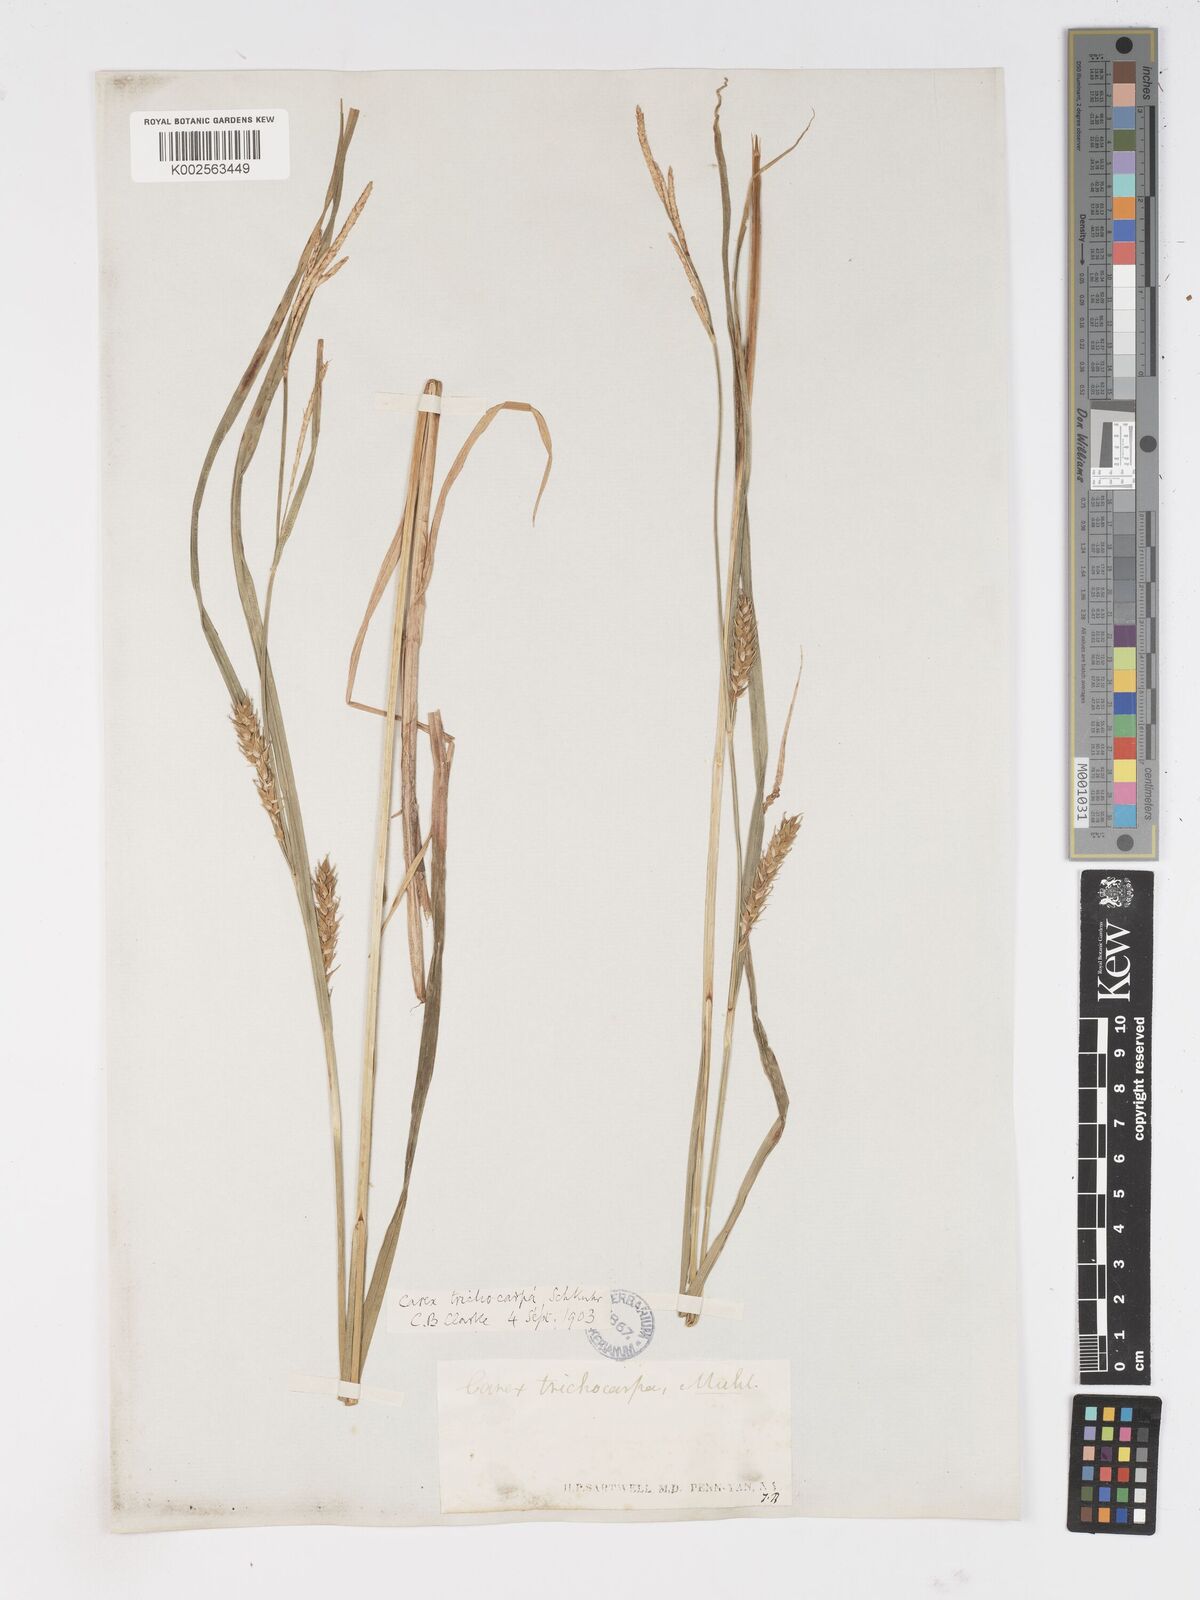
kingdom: Plantae
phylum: Tracheophyta
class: Liliopsida
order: Poales
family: Cyperaceae
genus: Carex
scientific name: Carex trichocarpa
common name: Hairy-fruited lake sedge
